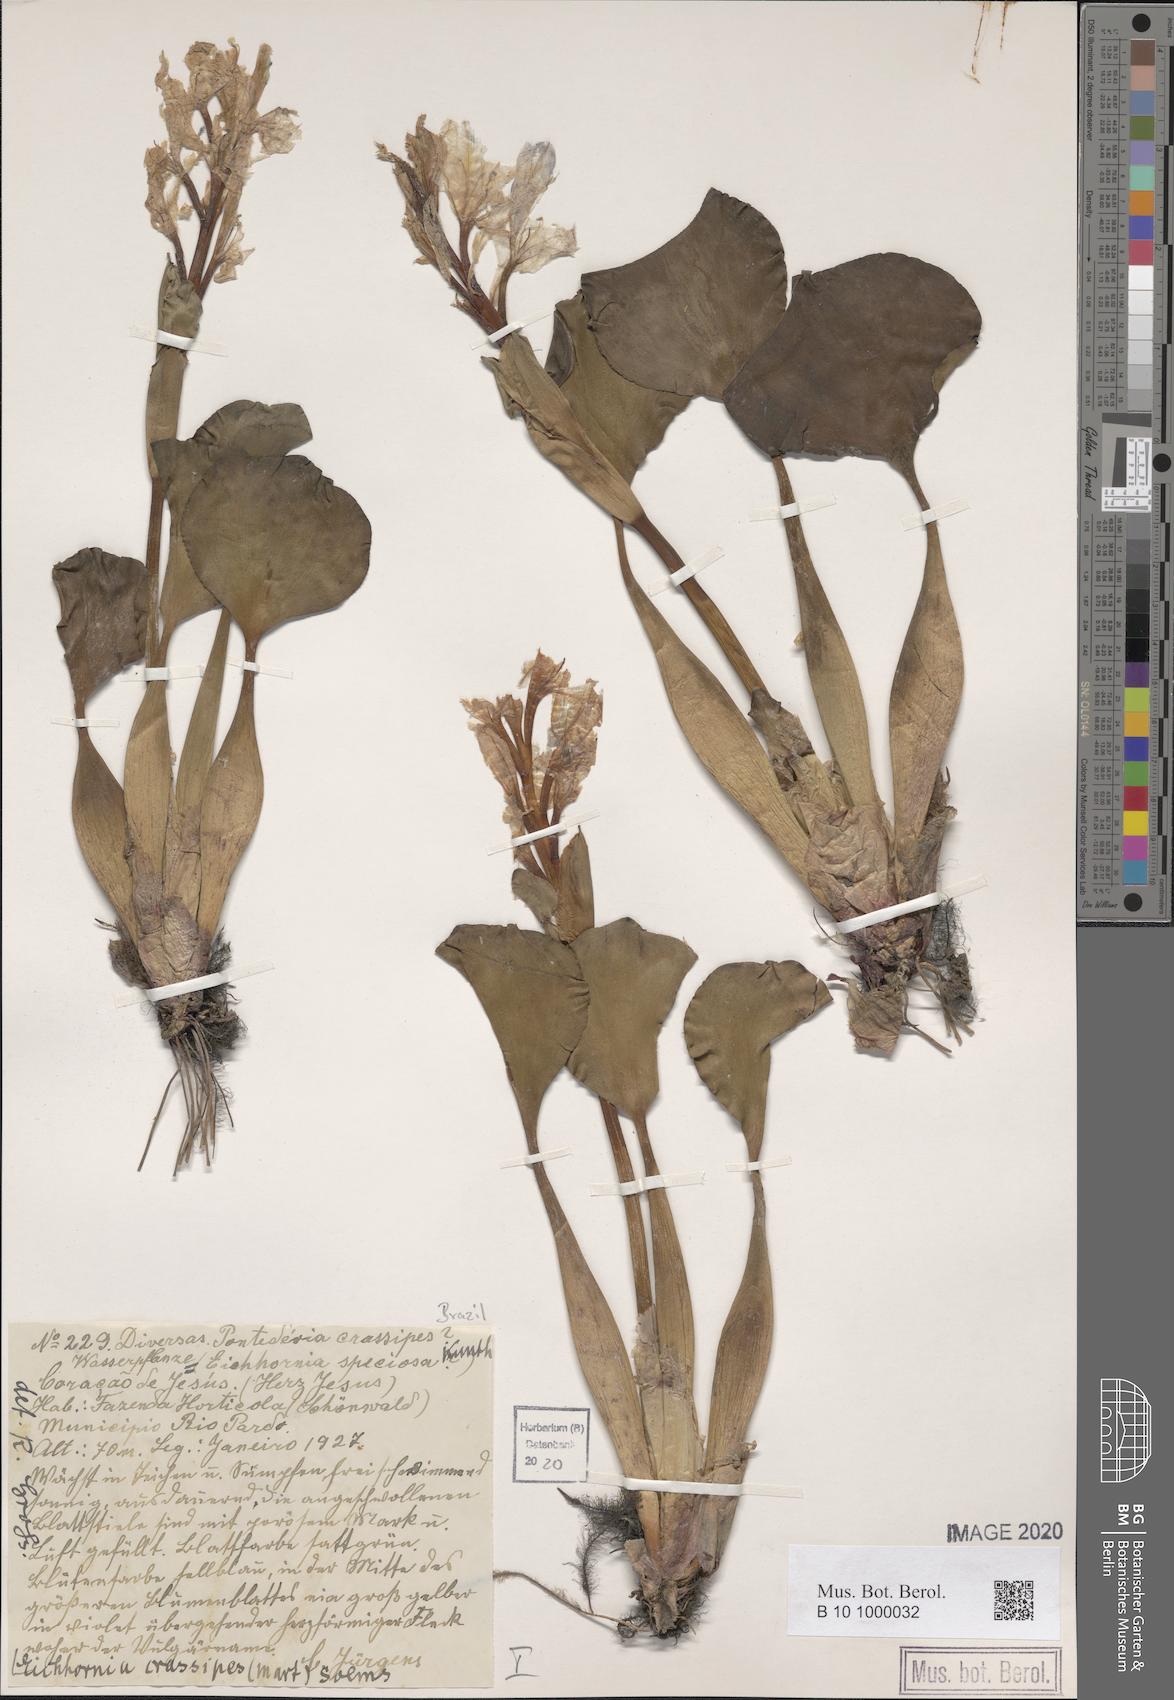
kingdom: Plantae
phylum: Tracheophyta
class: Liliopsida
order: Commelinales
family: Pontederiaceae
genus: Pontederia
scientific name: Pontederia crassipes
